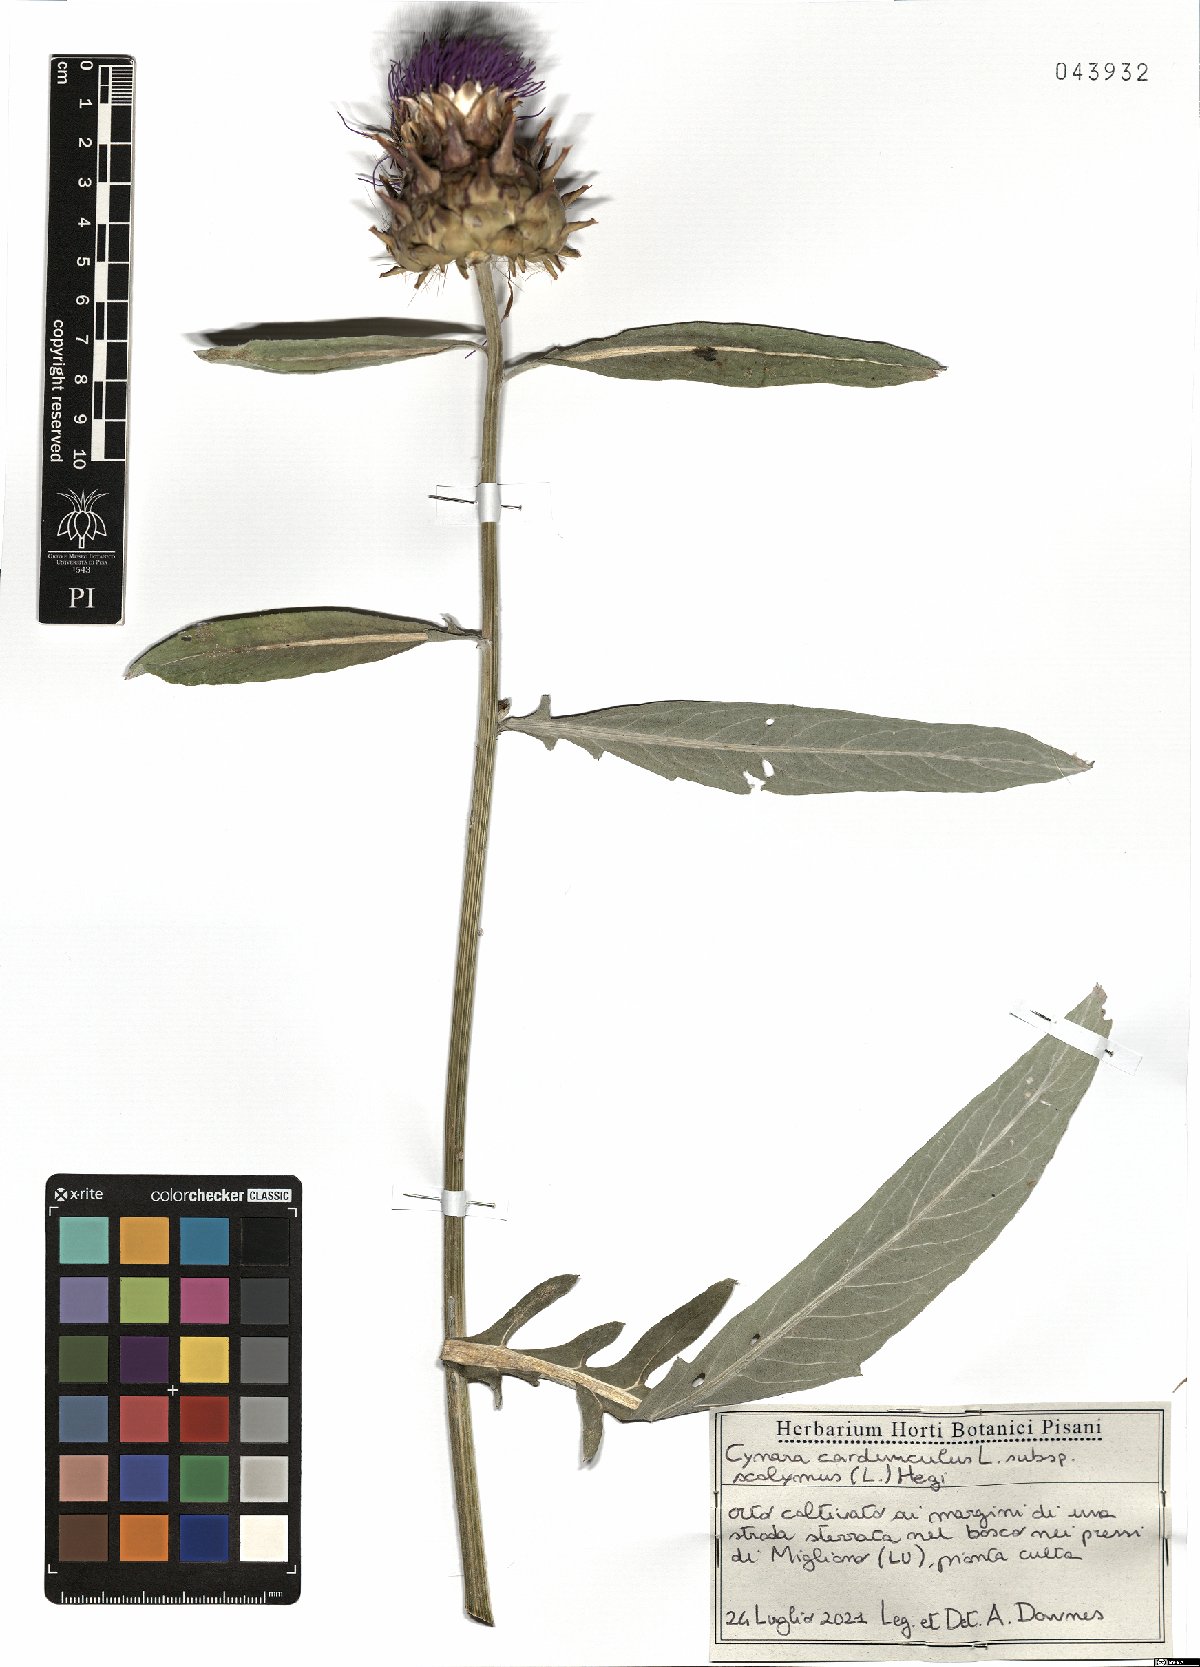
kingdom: Plantae
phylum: Tracheophyta
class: Magnoliopsida
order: Asterales
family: Asteraceae
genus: Cynara
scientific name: Cynara scolymus
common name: Globe artichoke
